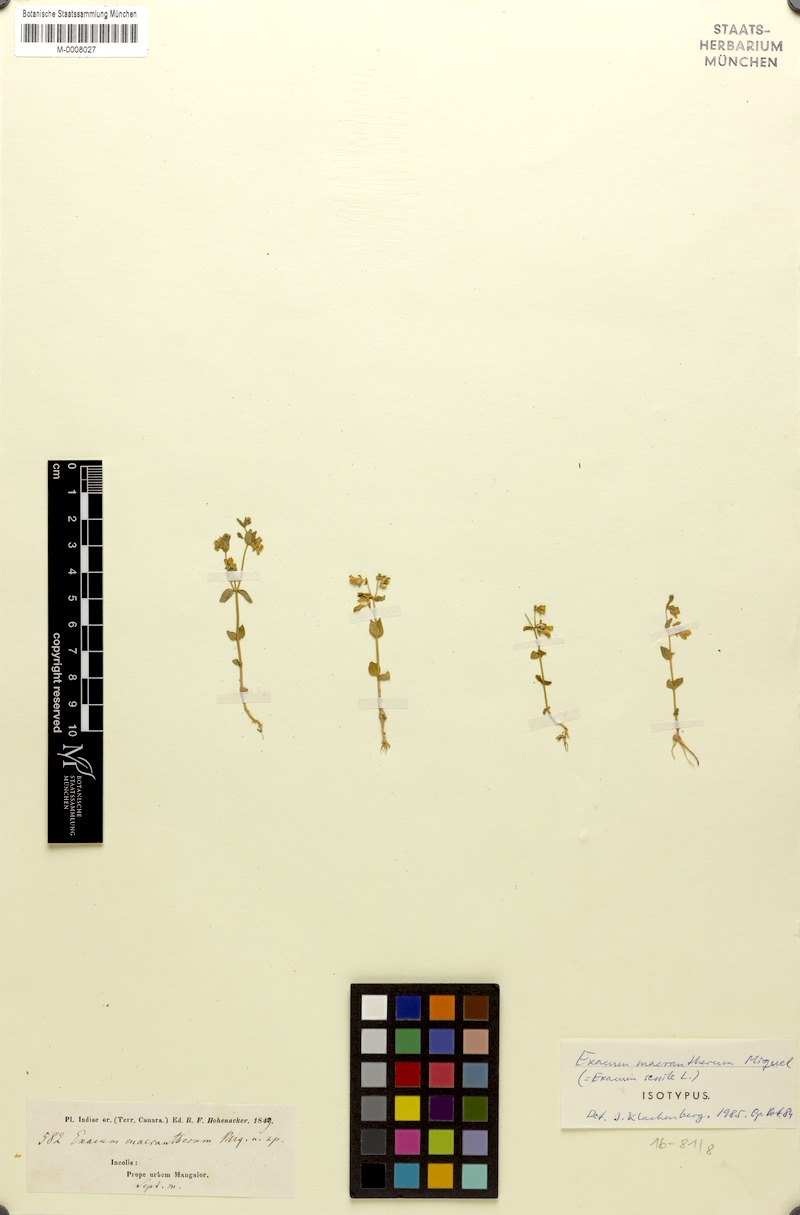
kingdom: Plantae
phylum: Tracheophyta
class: Magnoliopsida
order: Gentianales
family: Gentianaceae
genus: Exacum
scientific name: Exacum sessile
